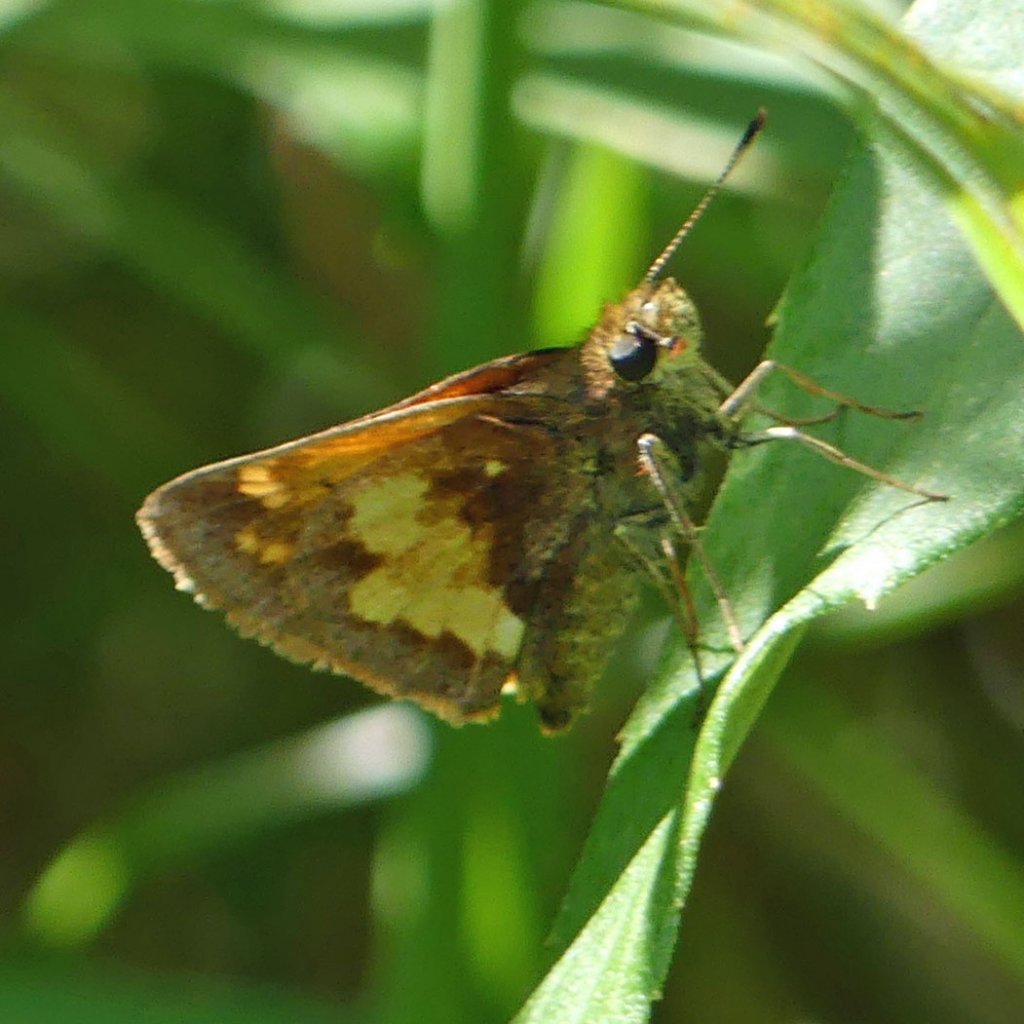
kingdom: Animalia
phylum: Arthropoda
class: Insecta
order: Lepidoptera
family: Hesperiidae
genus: Lon
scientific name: Lon hobomok
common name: Hobomok Skipper
